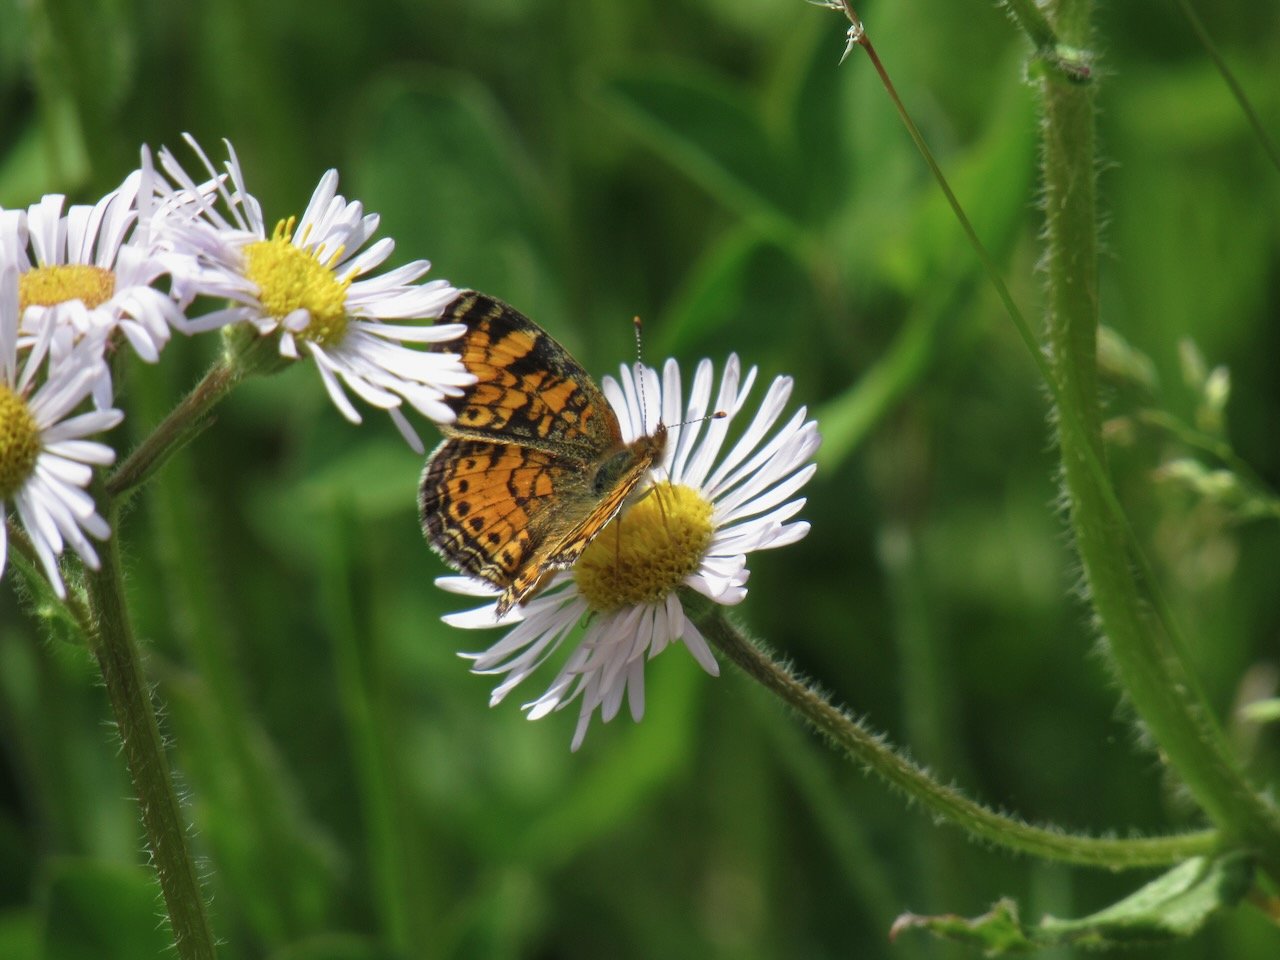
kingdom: Animalia
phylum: Arthropoda
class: Insecta
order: Lepidoptera
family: Nymphalidae
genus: Phyciodes
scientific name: Phyciodes tharos
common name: Pearl Crescent
